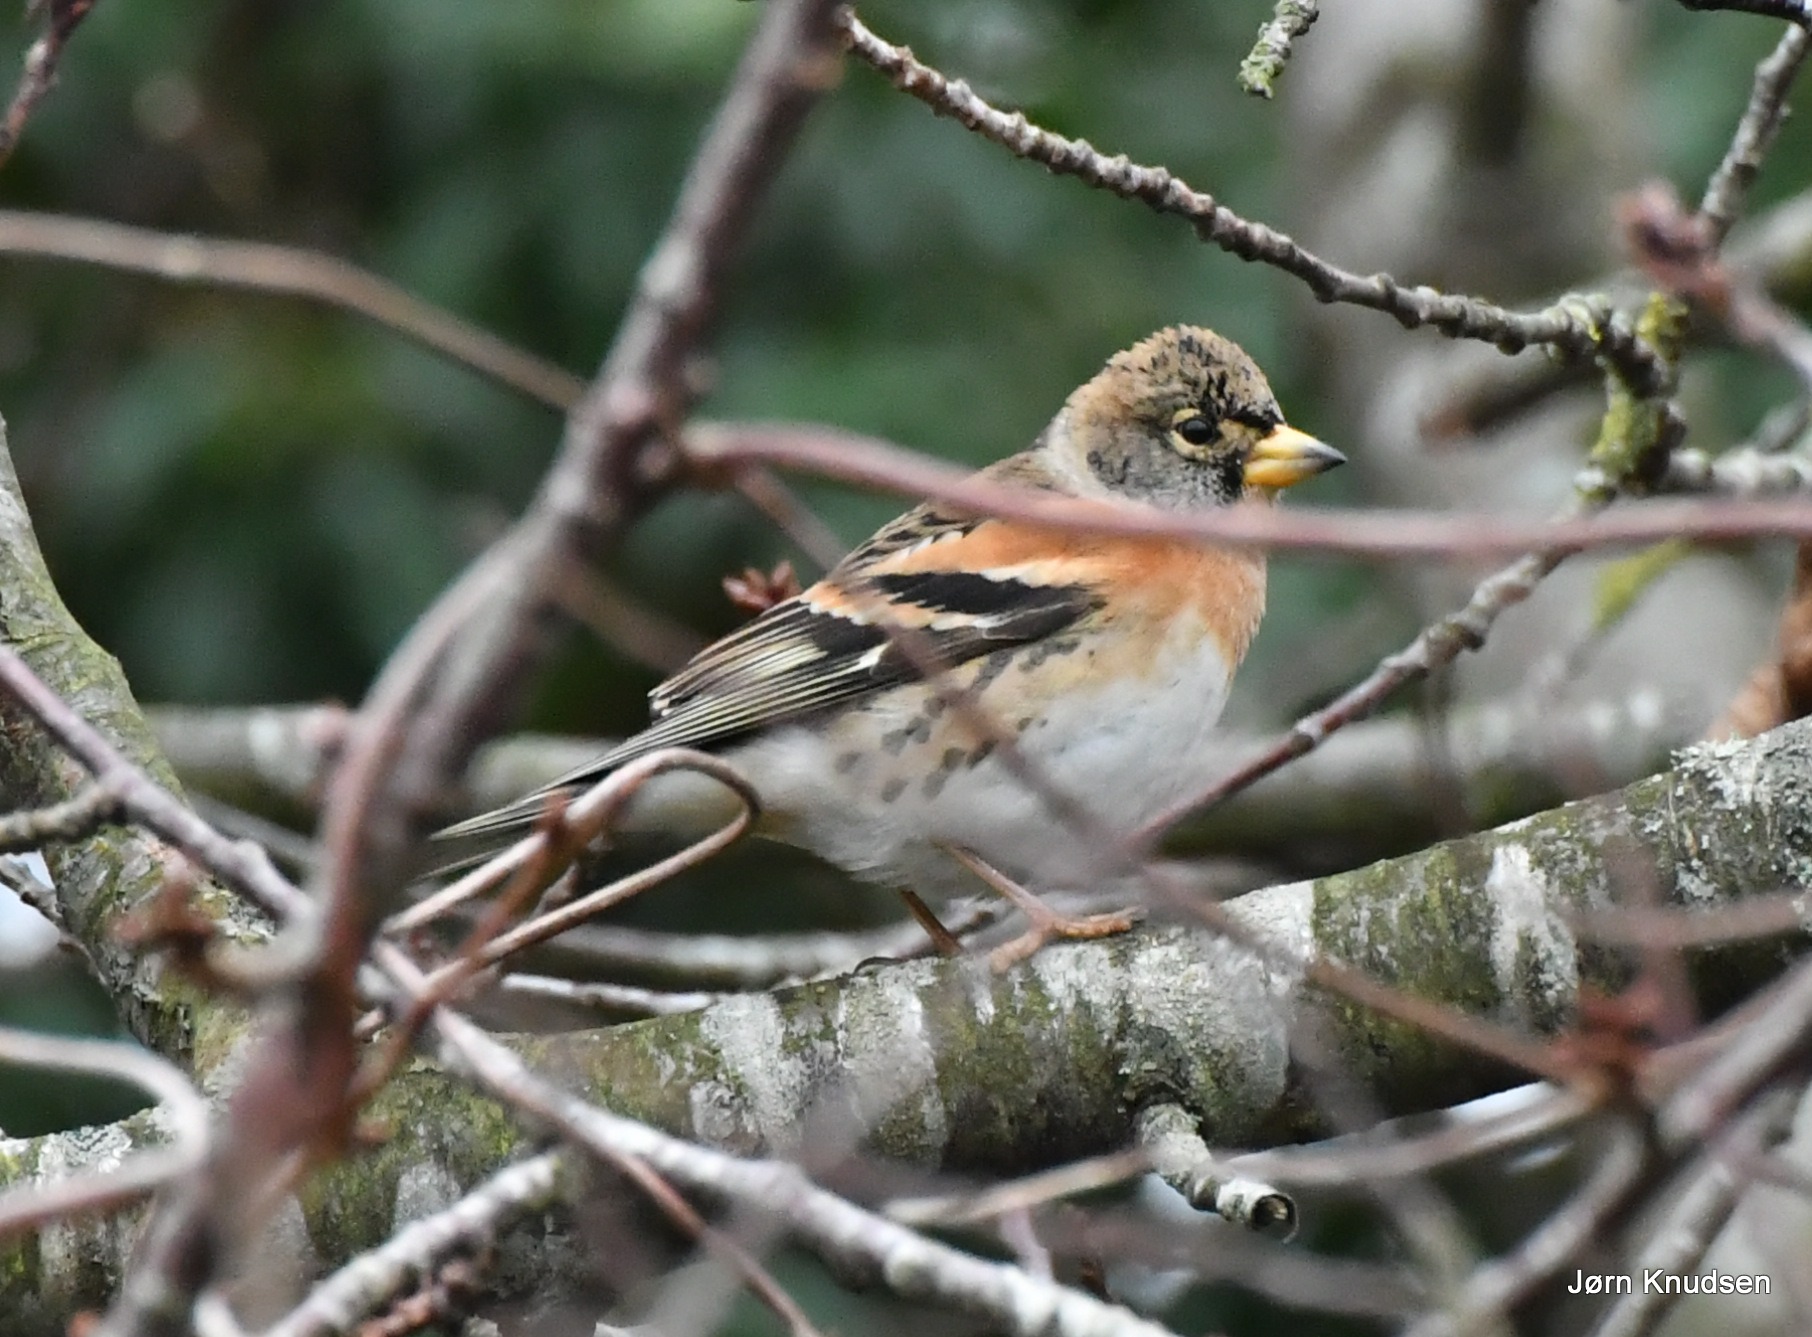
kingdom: Animalia
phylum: Chordata
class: Aves
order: Passeriformes
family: Fringillidae
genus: Fringilla
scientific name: Fringilla montifringilla
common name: Kvækerfinke
